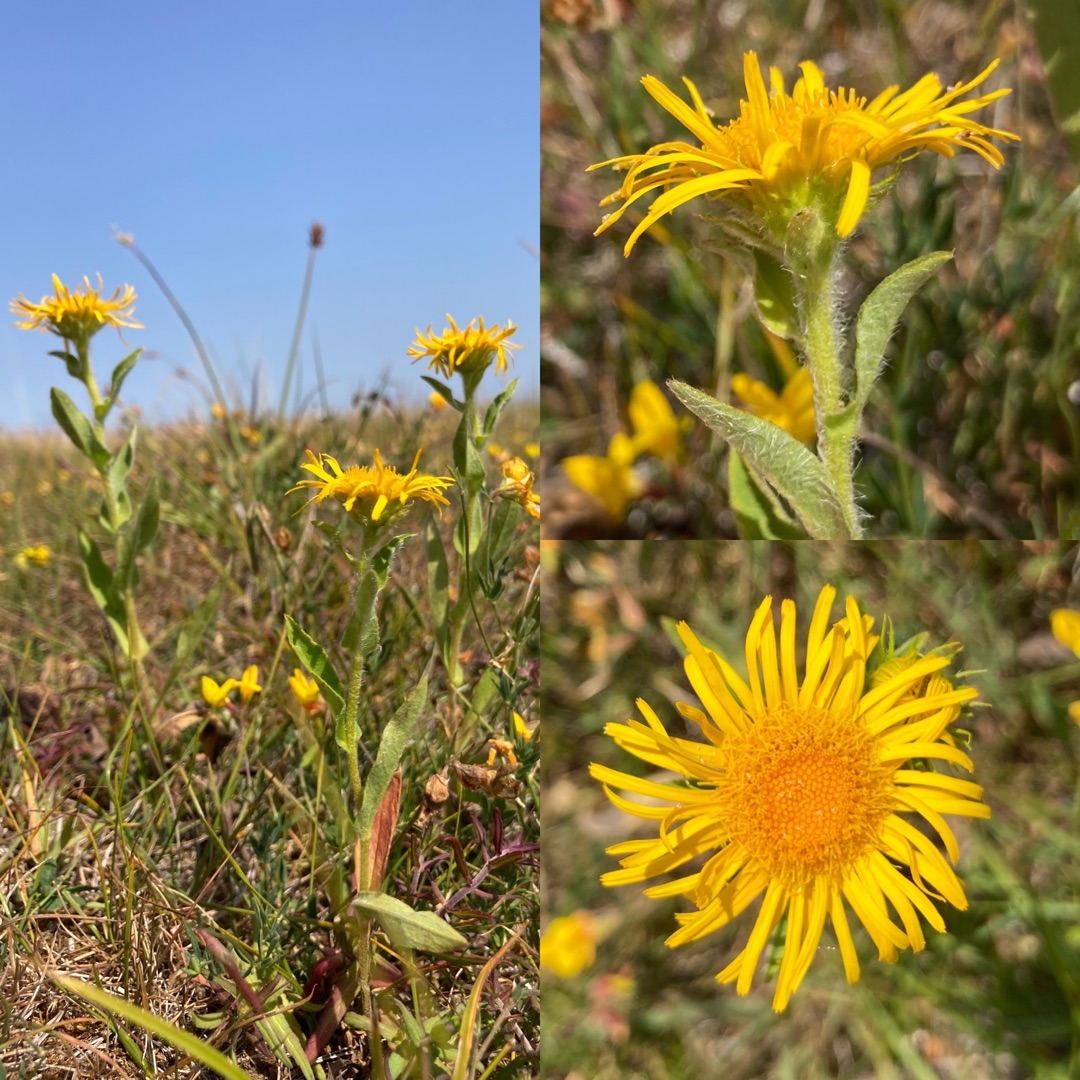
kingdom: Plantae
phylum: Tracheophyta
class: Magnoliopsida
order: Asterales
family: Asteraceae
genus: Pentanema
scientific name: Pentanema britannicum
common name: Soløje-alant
